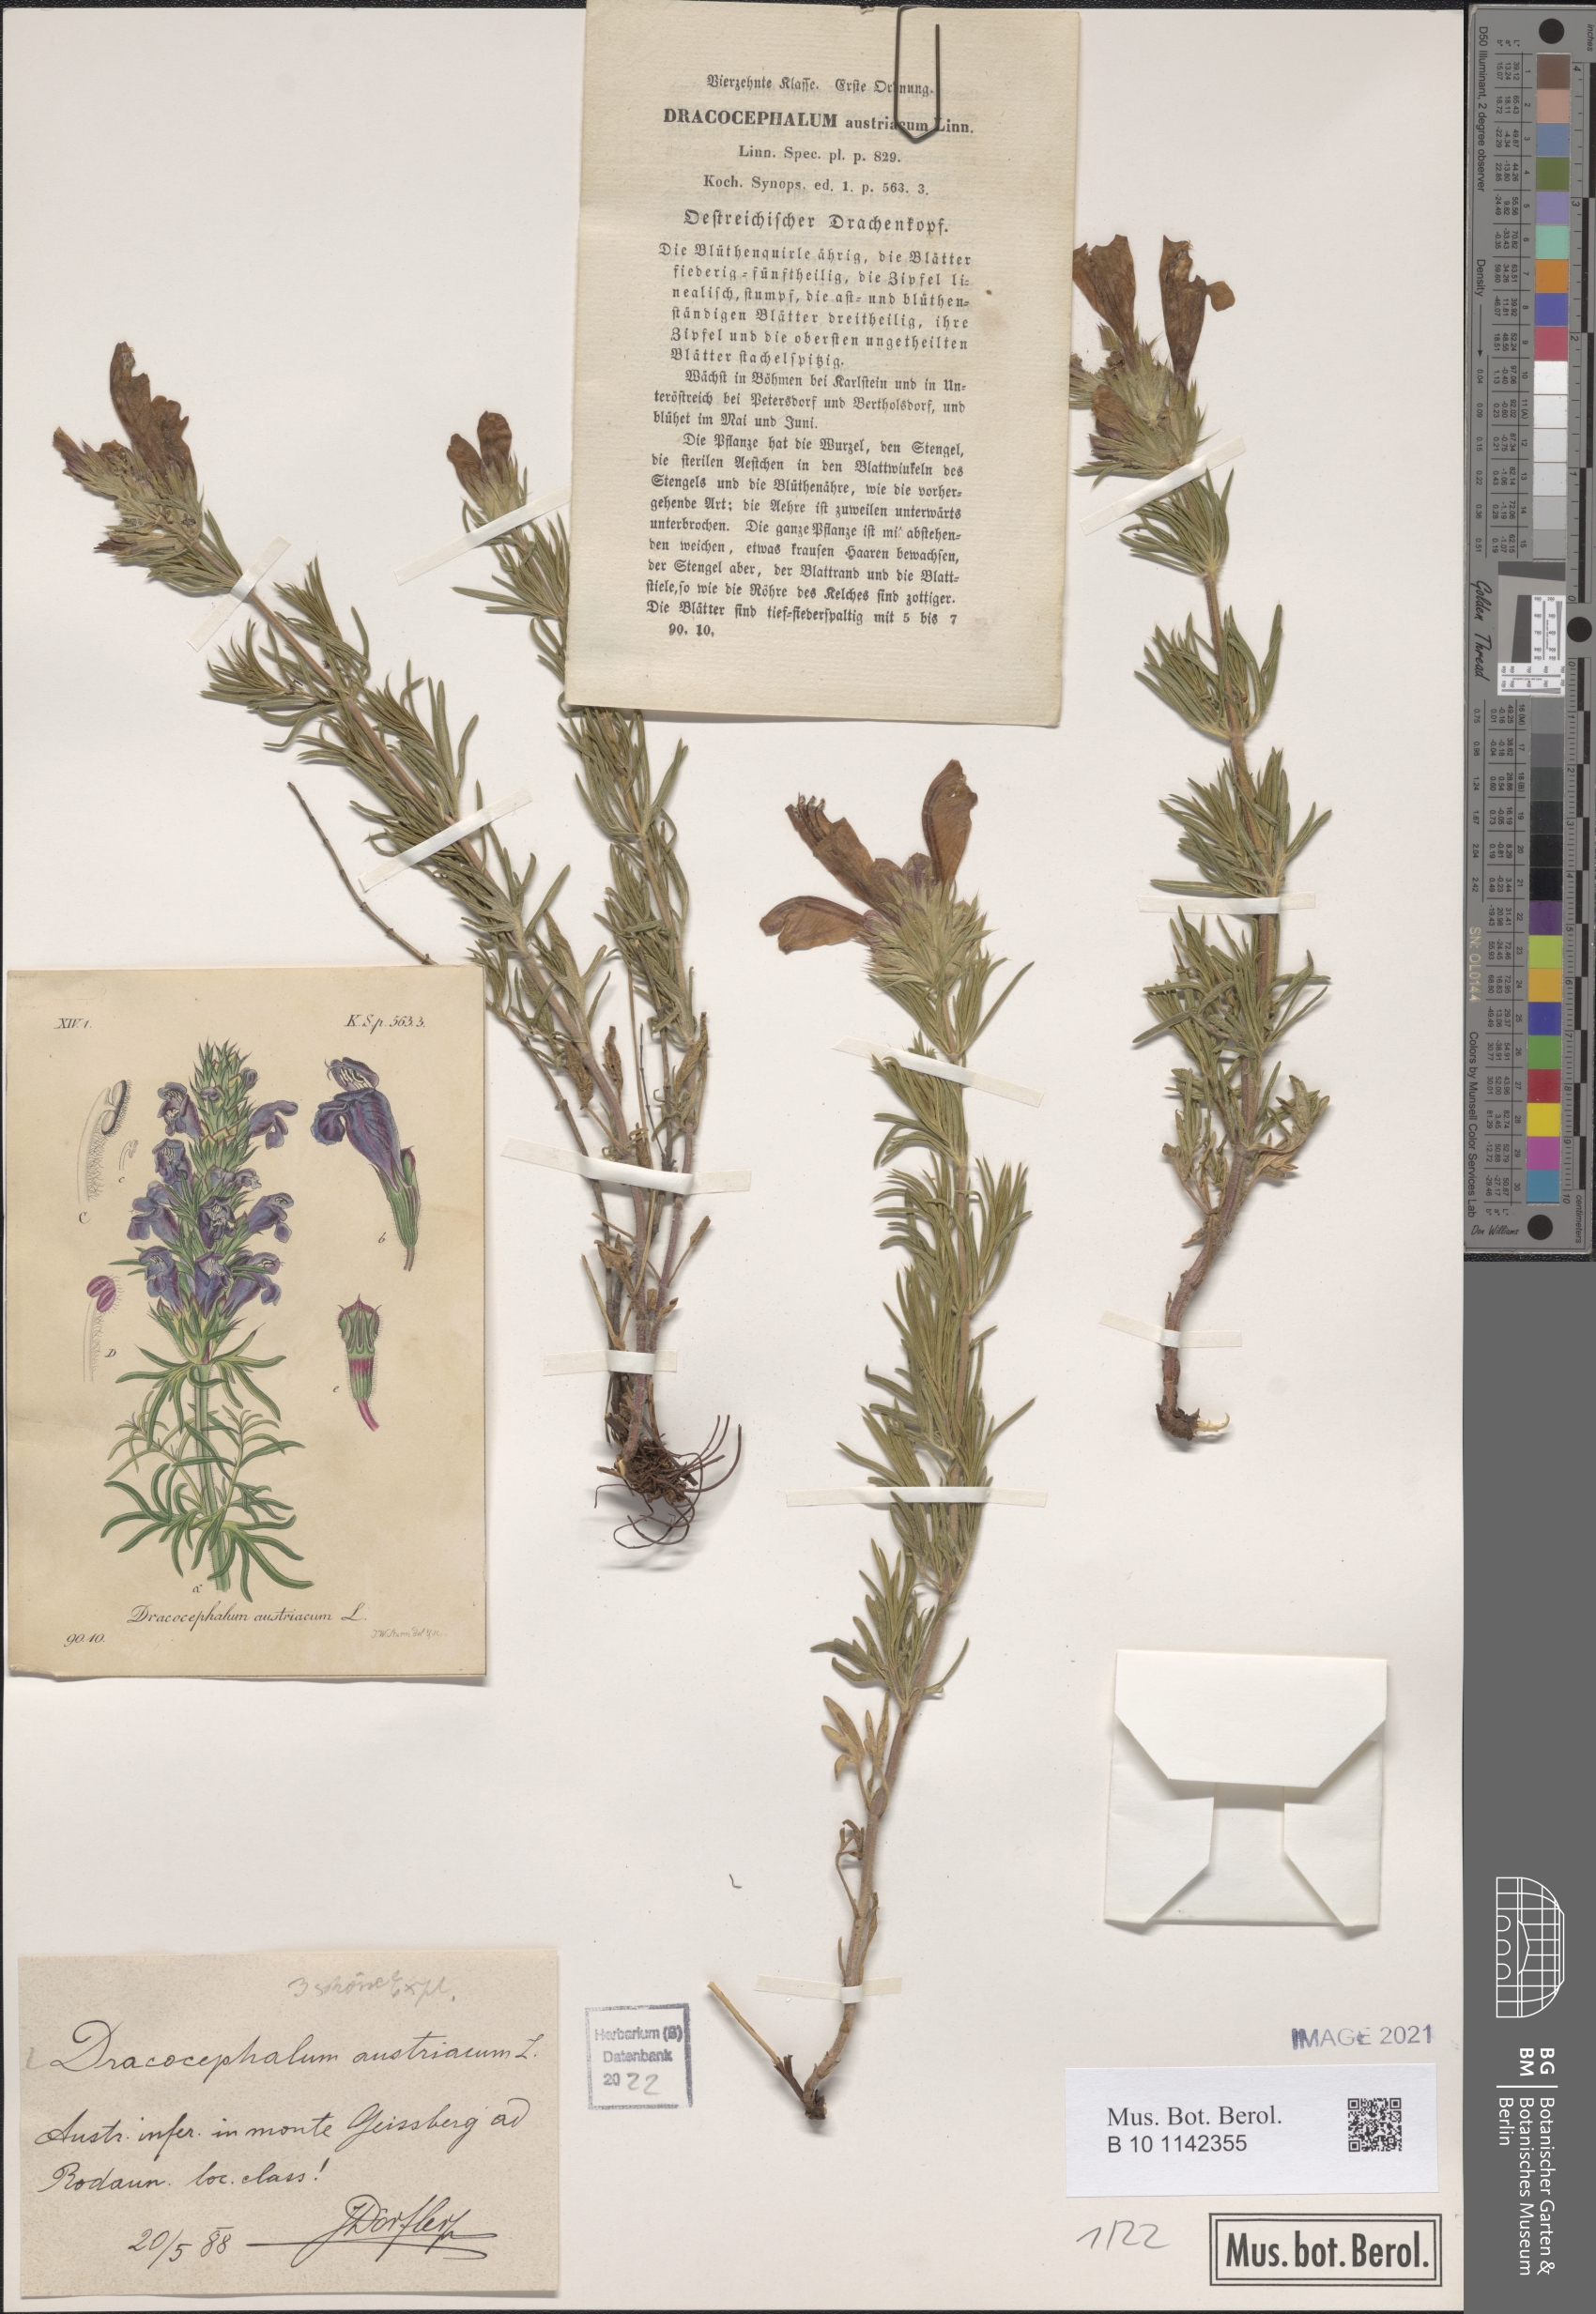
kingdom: Plantae
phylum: Tracheophyta
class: Magnoliopsida
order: Lamiales
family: Lamiaceae
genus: Dracocephalum
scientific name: Dracocephalum austriacum
